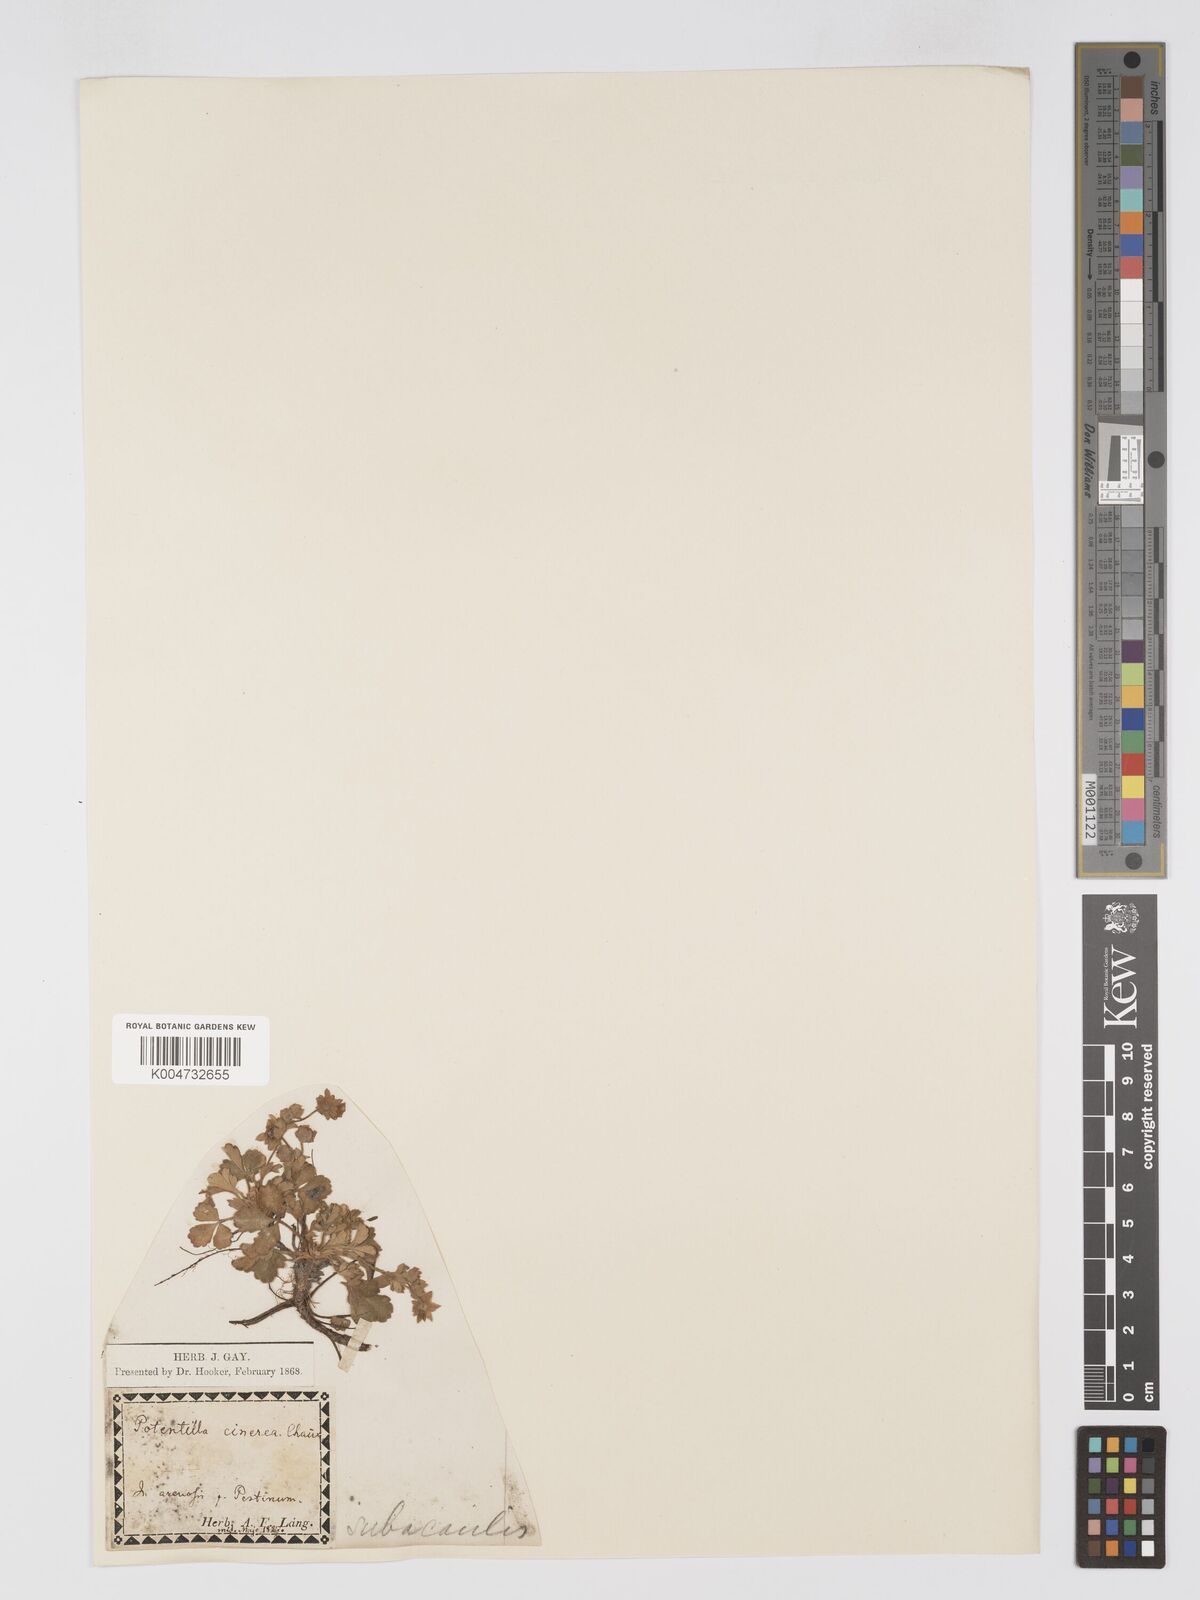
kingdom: Plantae
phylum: Tracheophyta
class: Magnoliopsida
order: Rosales
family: Rosaceae
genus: Potentilla
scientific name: Potentilla cinerea
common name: Ashy cinquefoil
